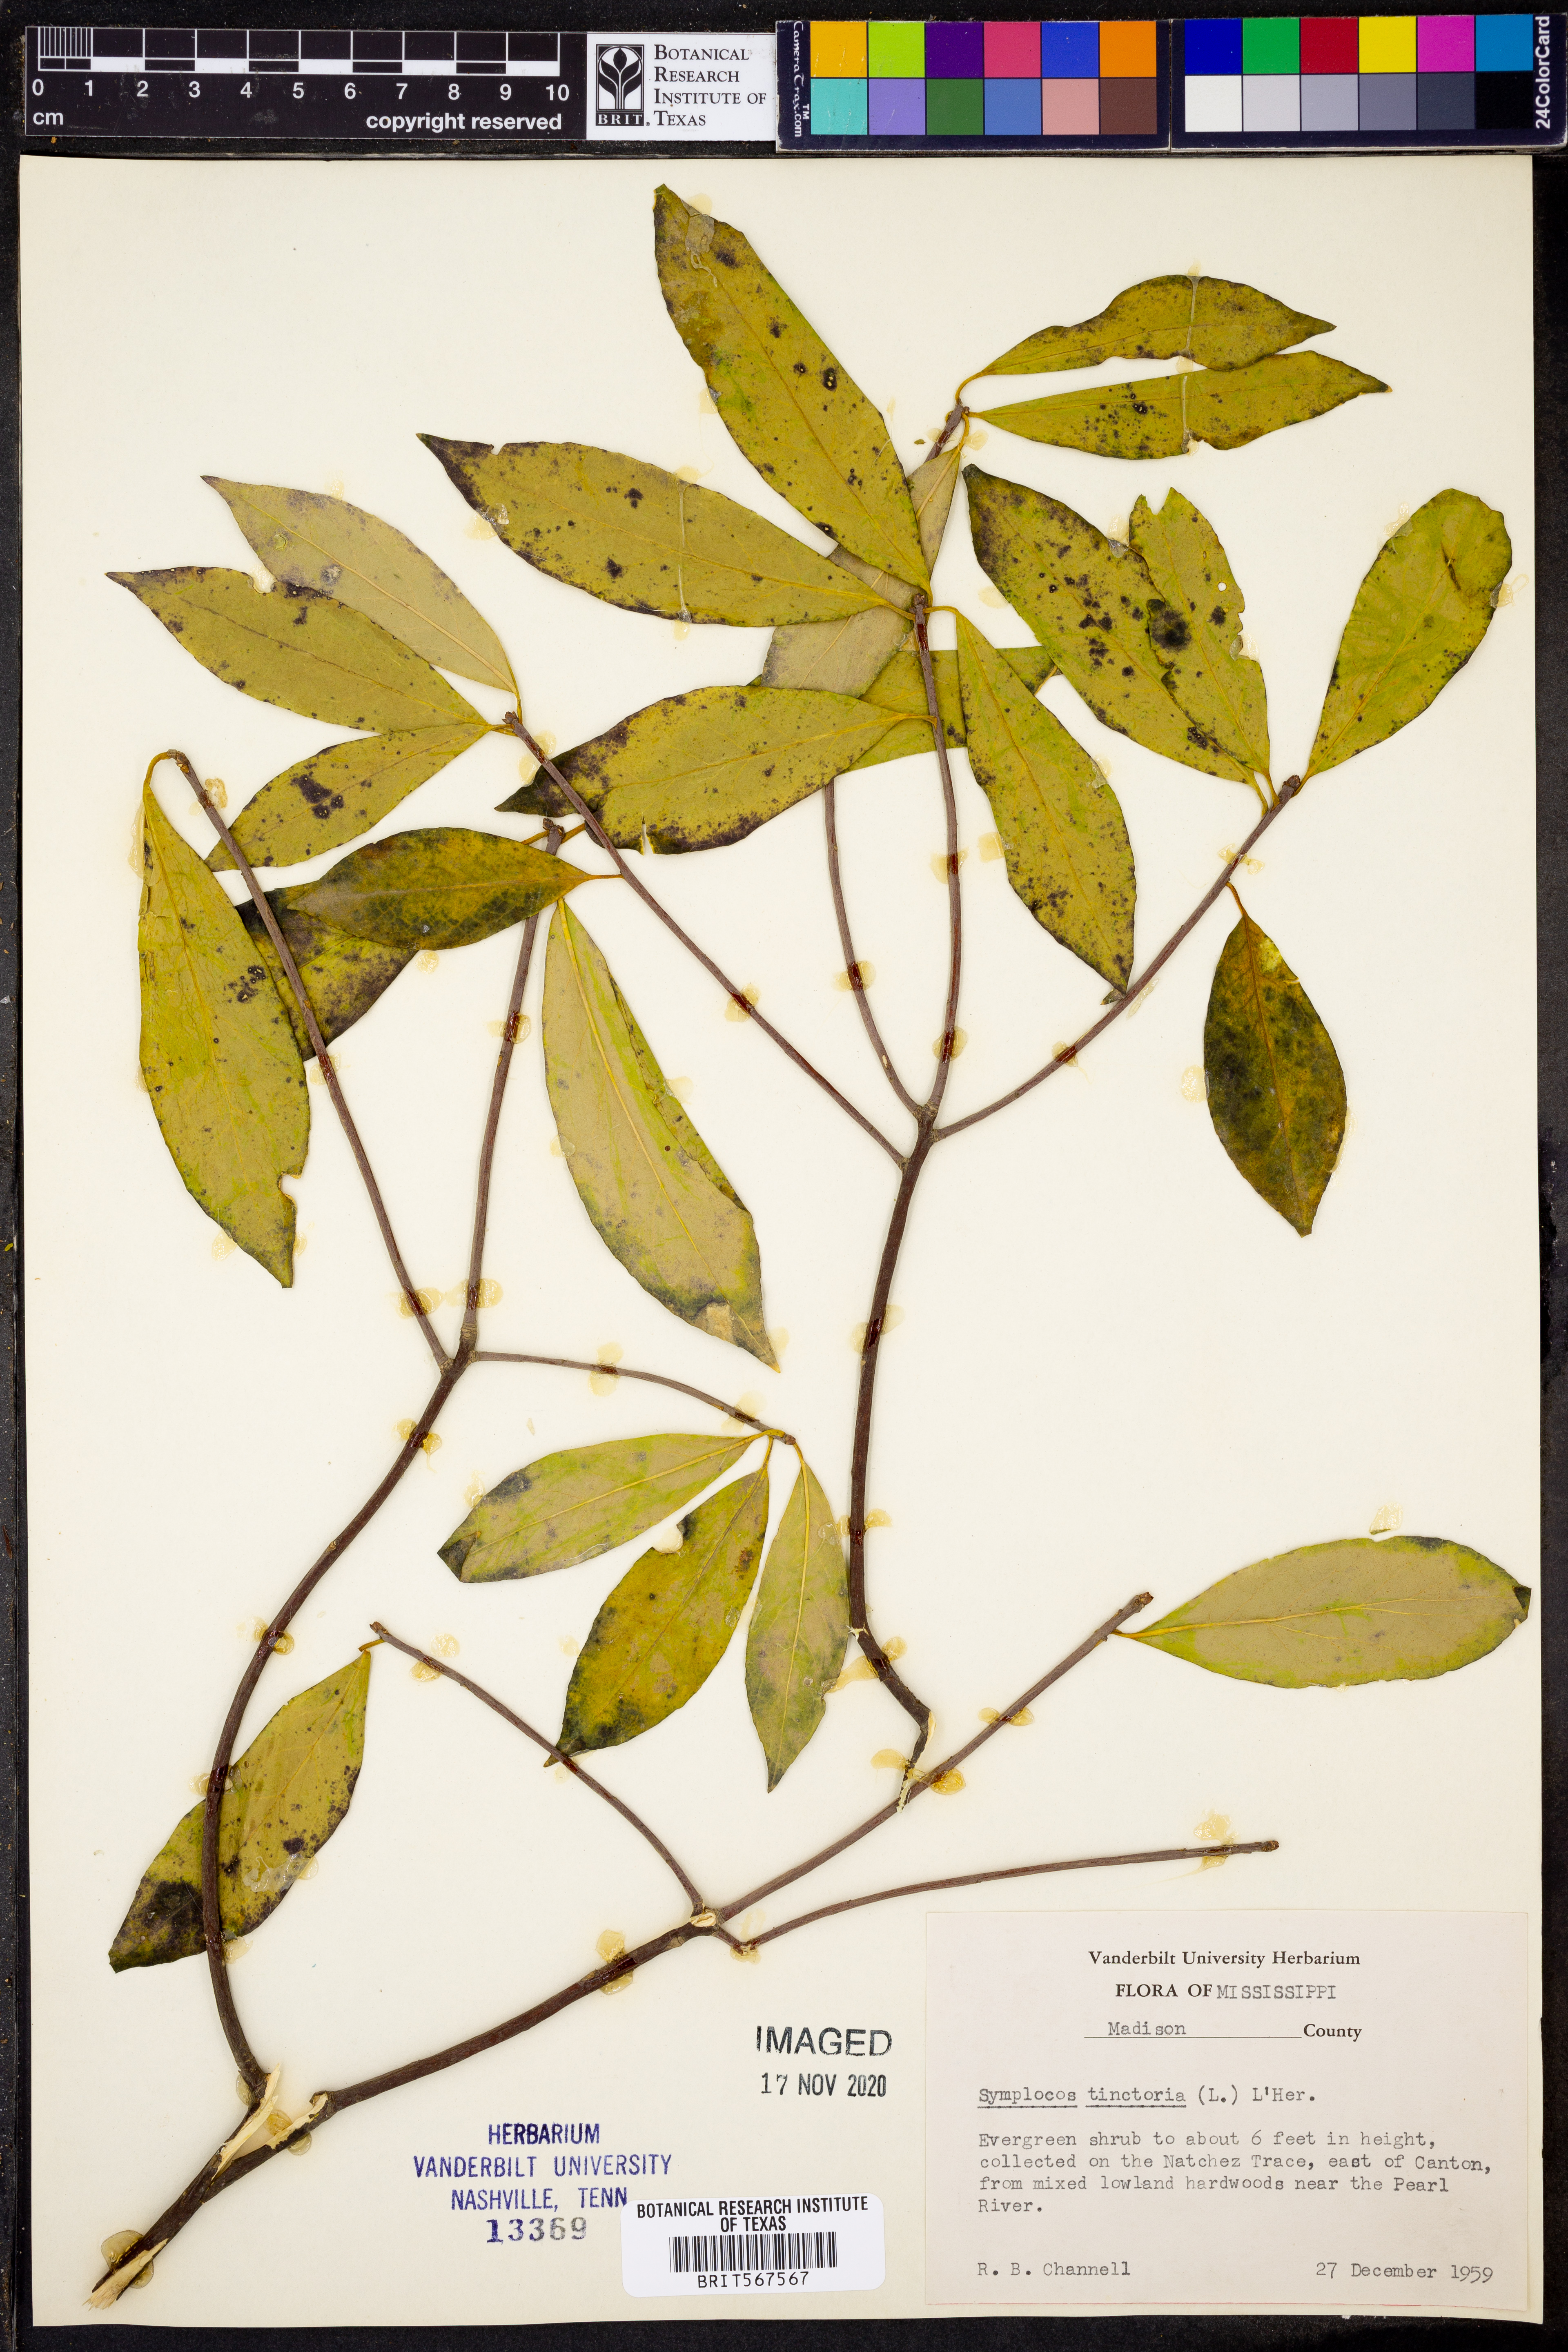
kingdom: Plantae
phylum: Tracheophyta
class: Magnoliopsida
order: Ericales
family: Symplocaceae
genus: Symplocos
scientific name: Symplocos tinctoria
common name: Horse-sugar
